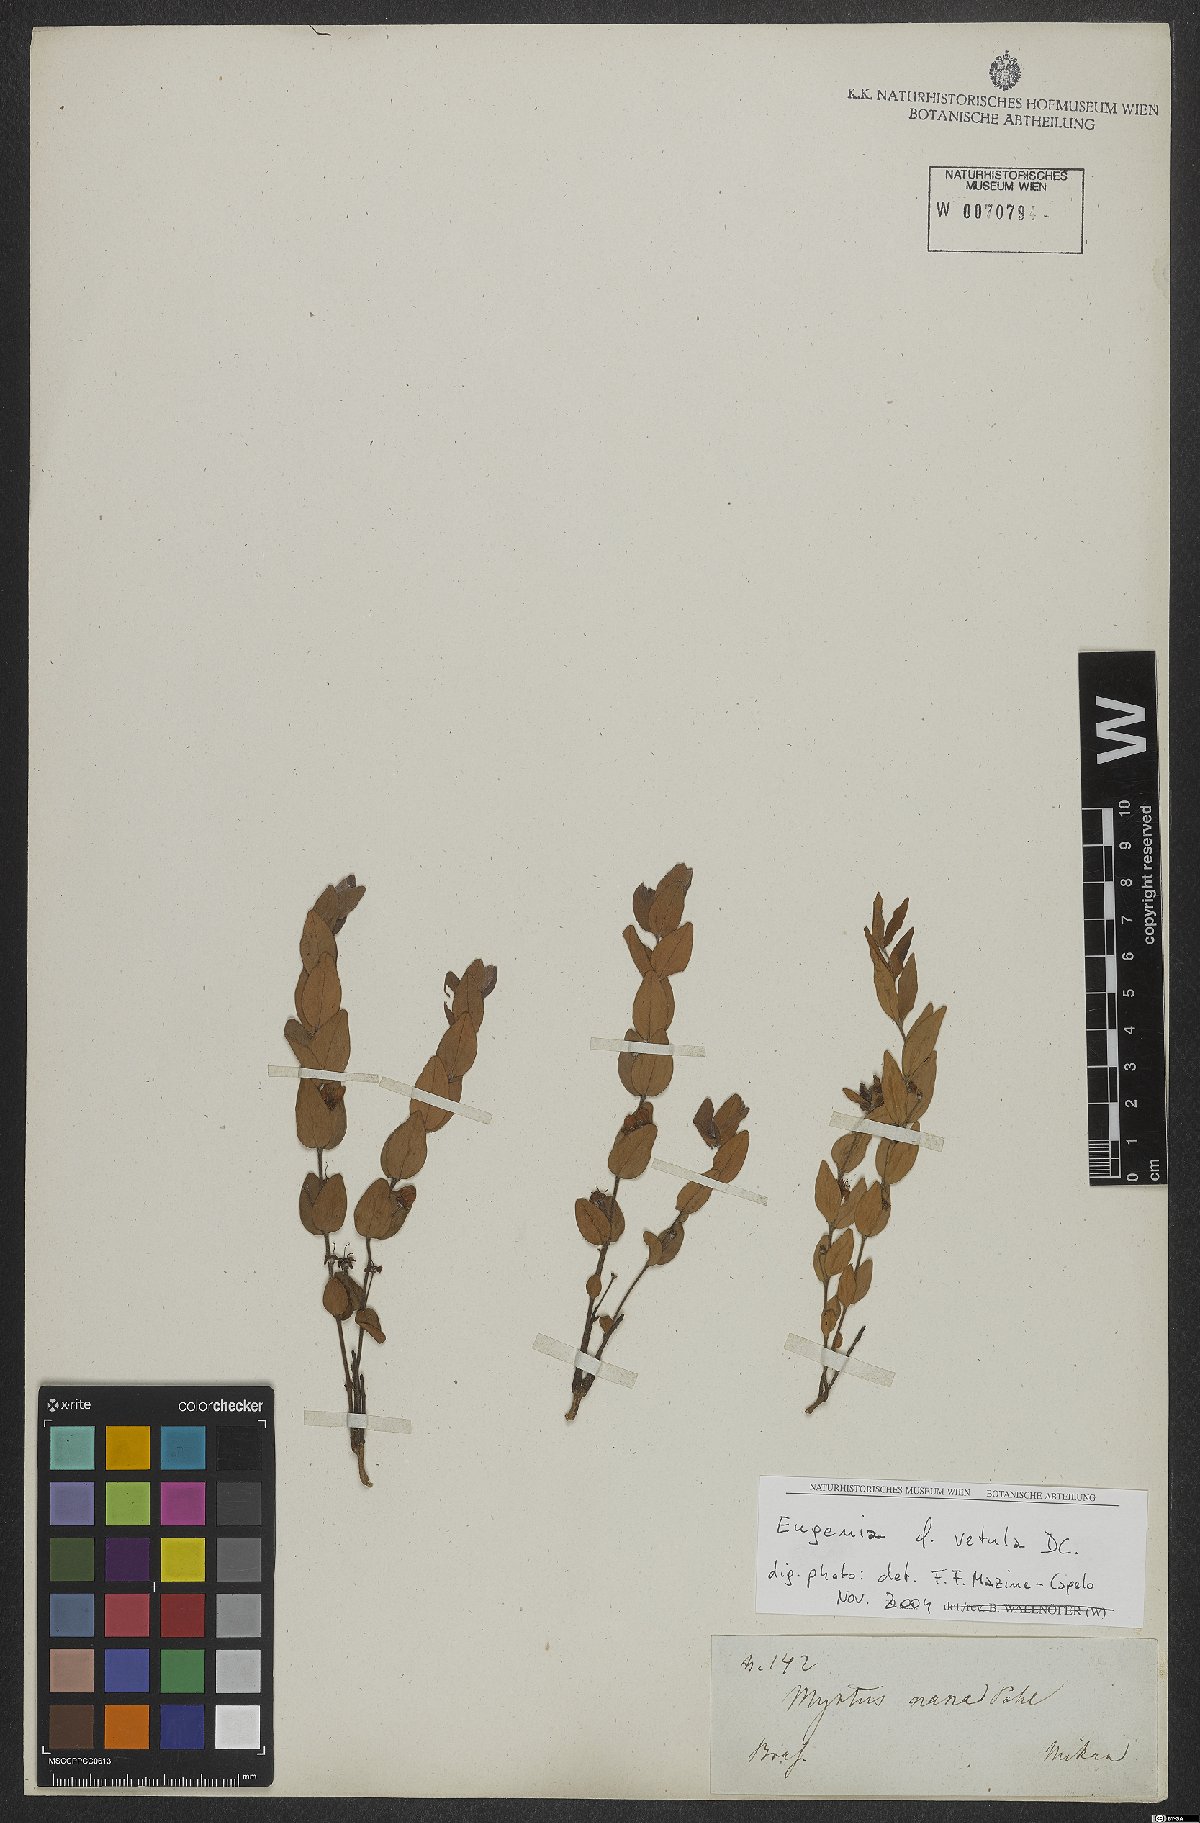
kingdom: Plantae
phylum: Tracheophyta
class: Magnoliopsida
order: Myrtales
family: Myrtaceae
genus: Eugenia
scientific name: Eugenia vetula
